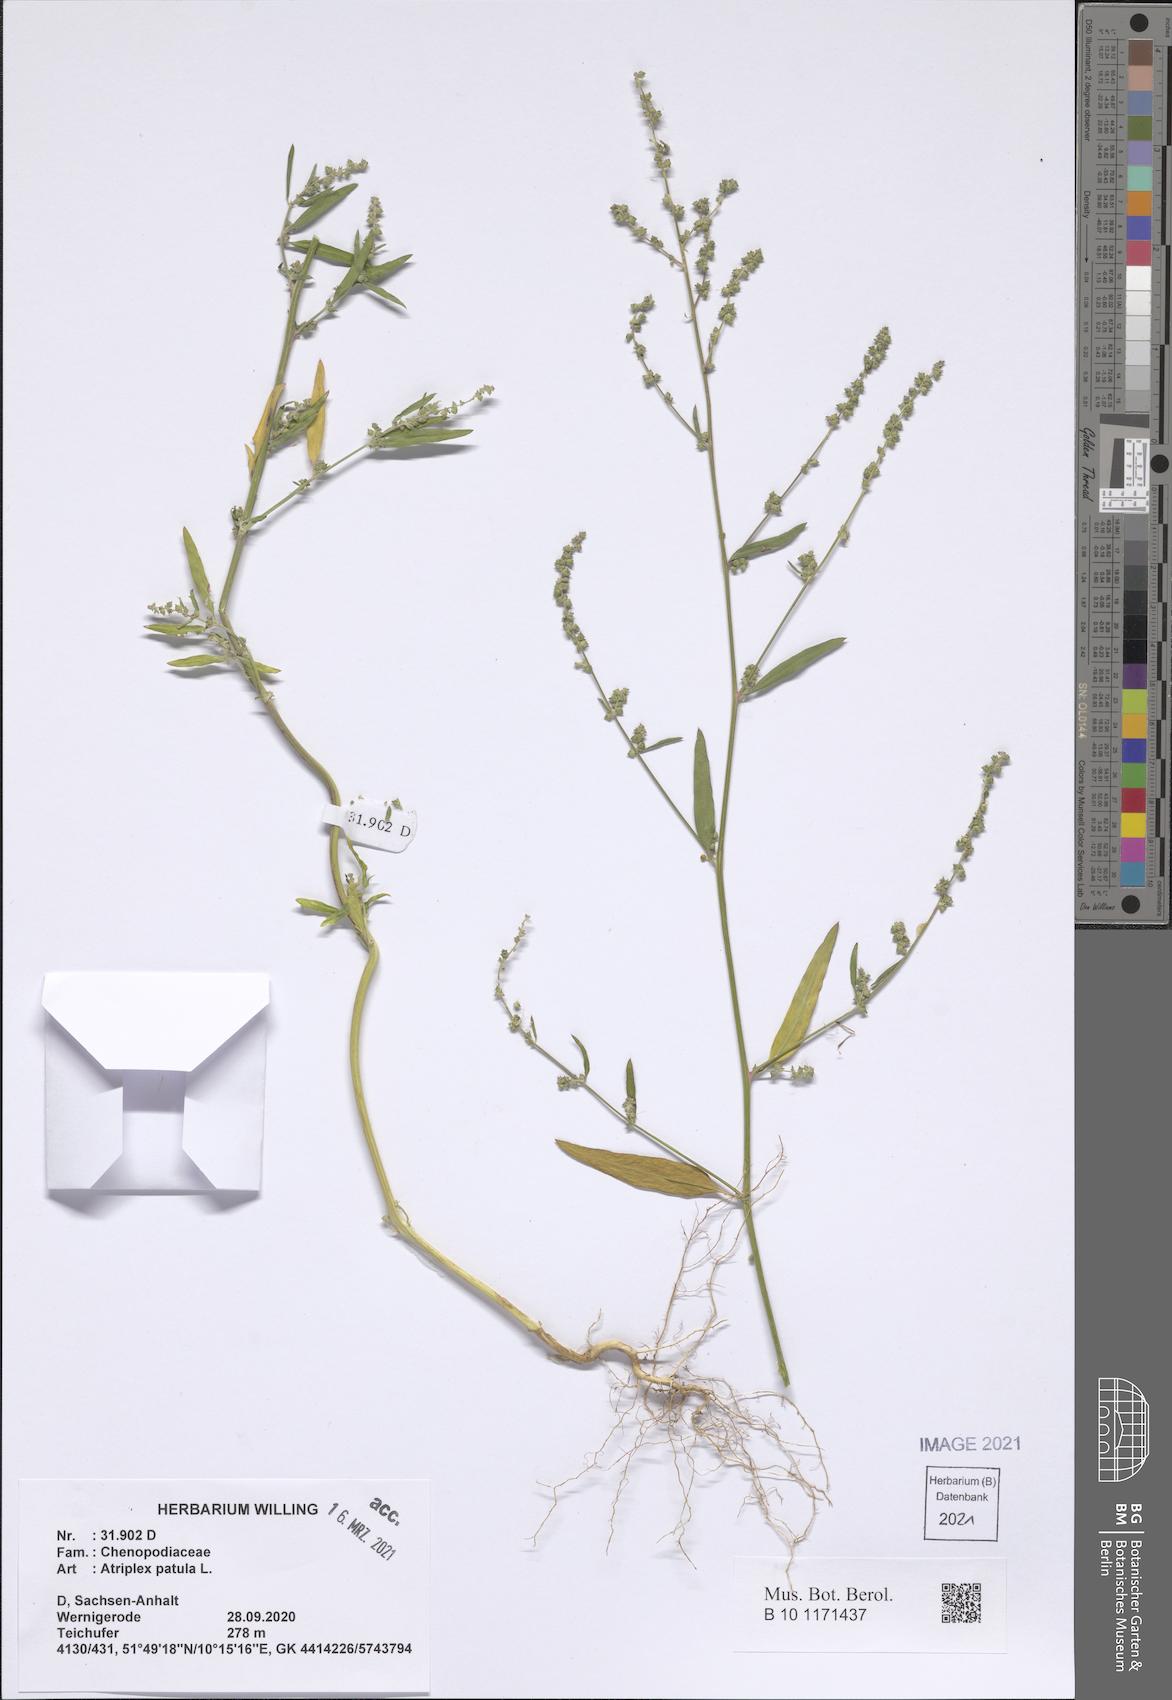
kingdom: Plantae
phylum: Tracheophyta
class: Magnoliopsida
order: Caryophyllales
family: Amaranthaceae
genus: Atriplex
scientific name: Atriplex patula
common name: Common orache
